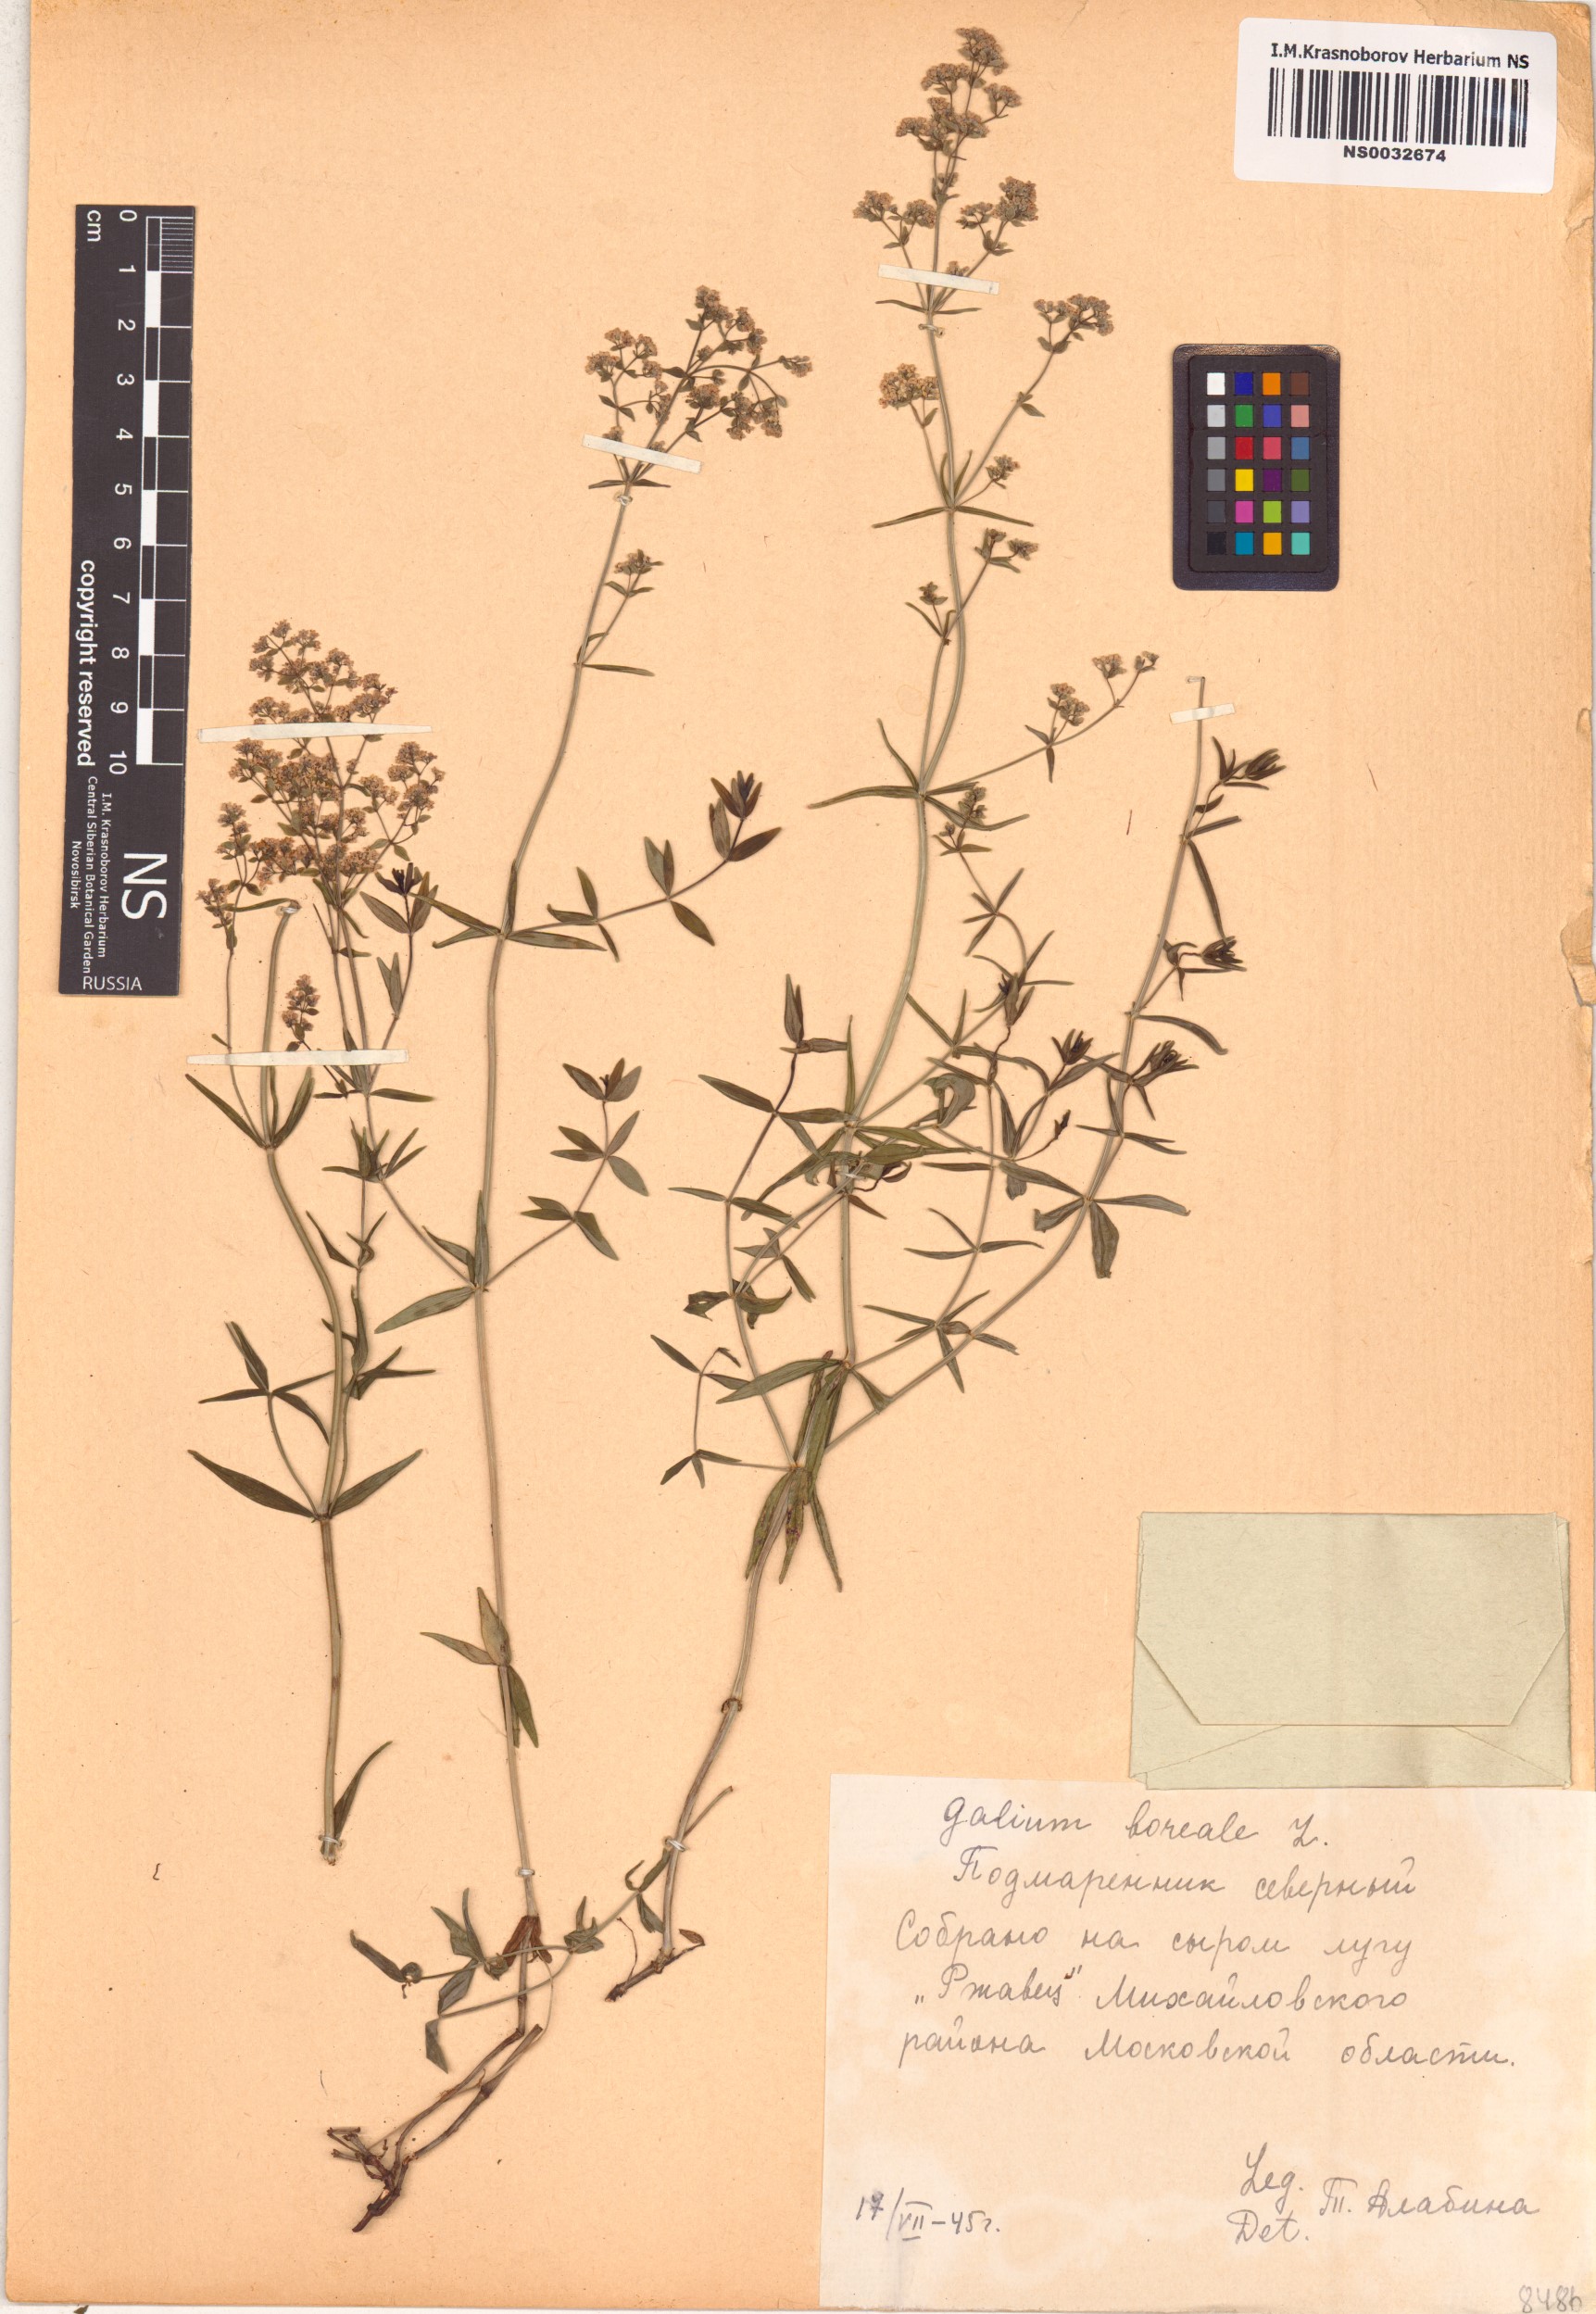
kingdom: Plantae
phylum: Tracheophyta
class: Magnoliopsida
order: Gentianales
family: Rubiaceae
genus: Galium
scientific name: Galium boreale
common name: Northern bedstraw
